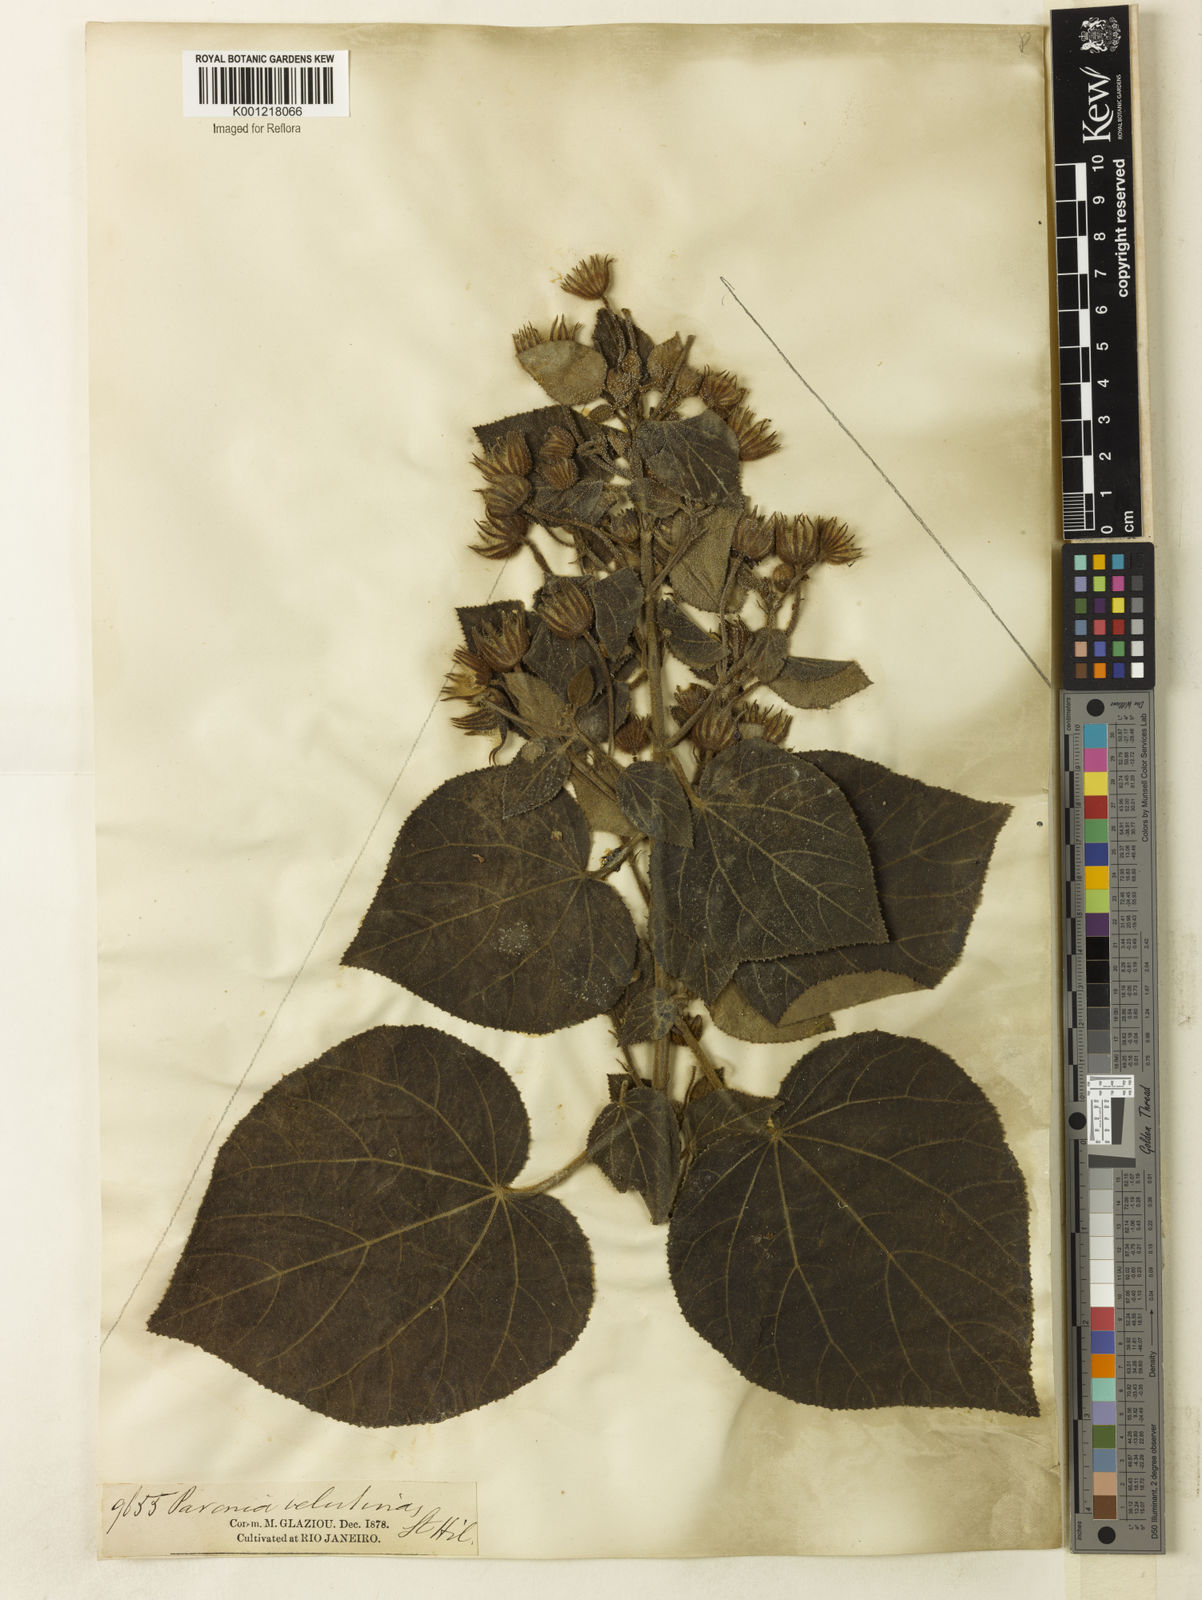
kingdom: Plantae
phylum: Tracheophyta
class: Magnoliopsida
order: Malvales
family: Malvaceae
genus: Pavonia
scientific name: Pavonia malacophylla
